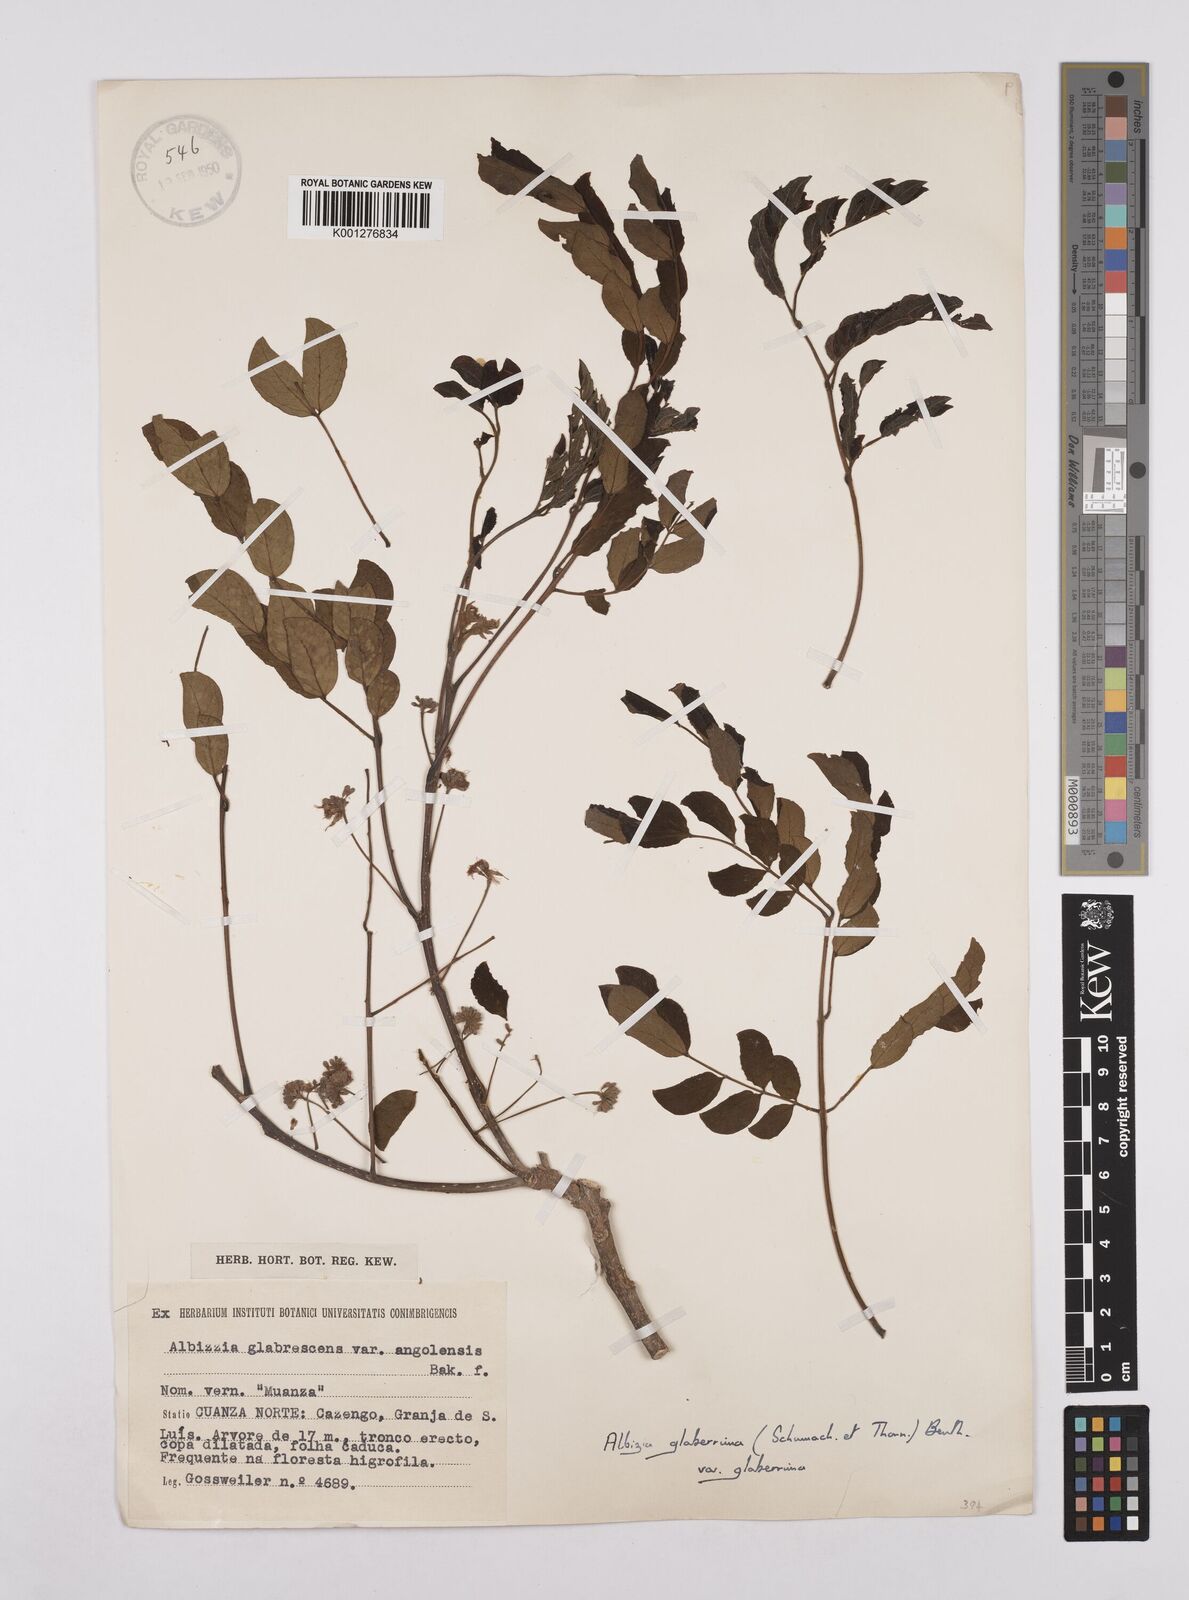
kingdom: Plantae
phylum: Tracheophyta
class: Magnoliopsida
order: Fabales
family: Fabaceae
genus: Albizia
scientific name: Albizia glaberrima
